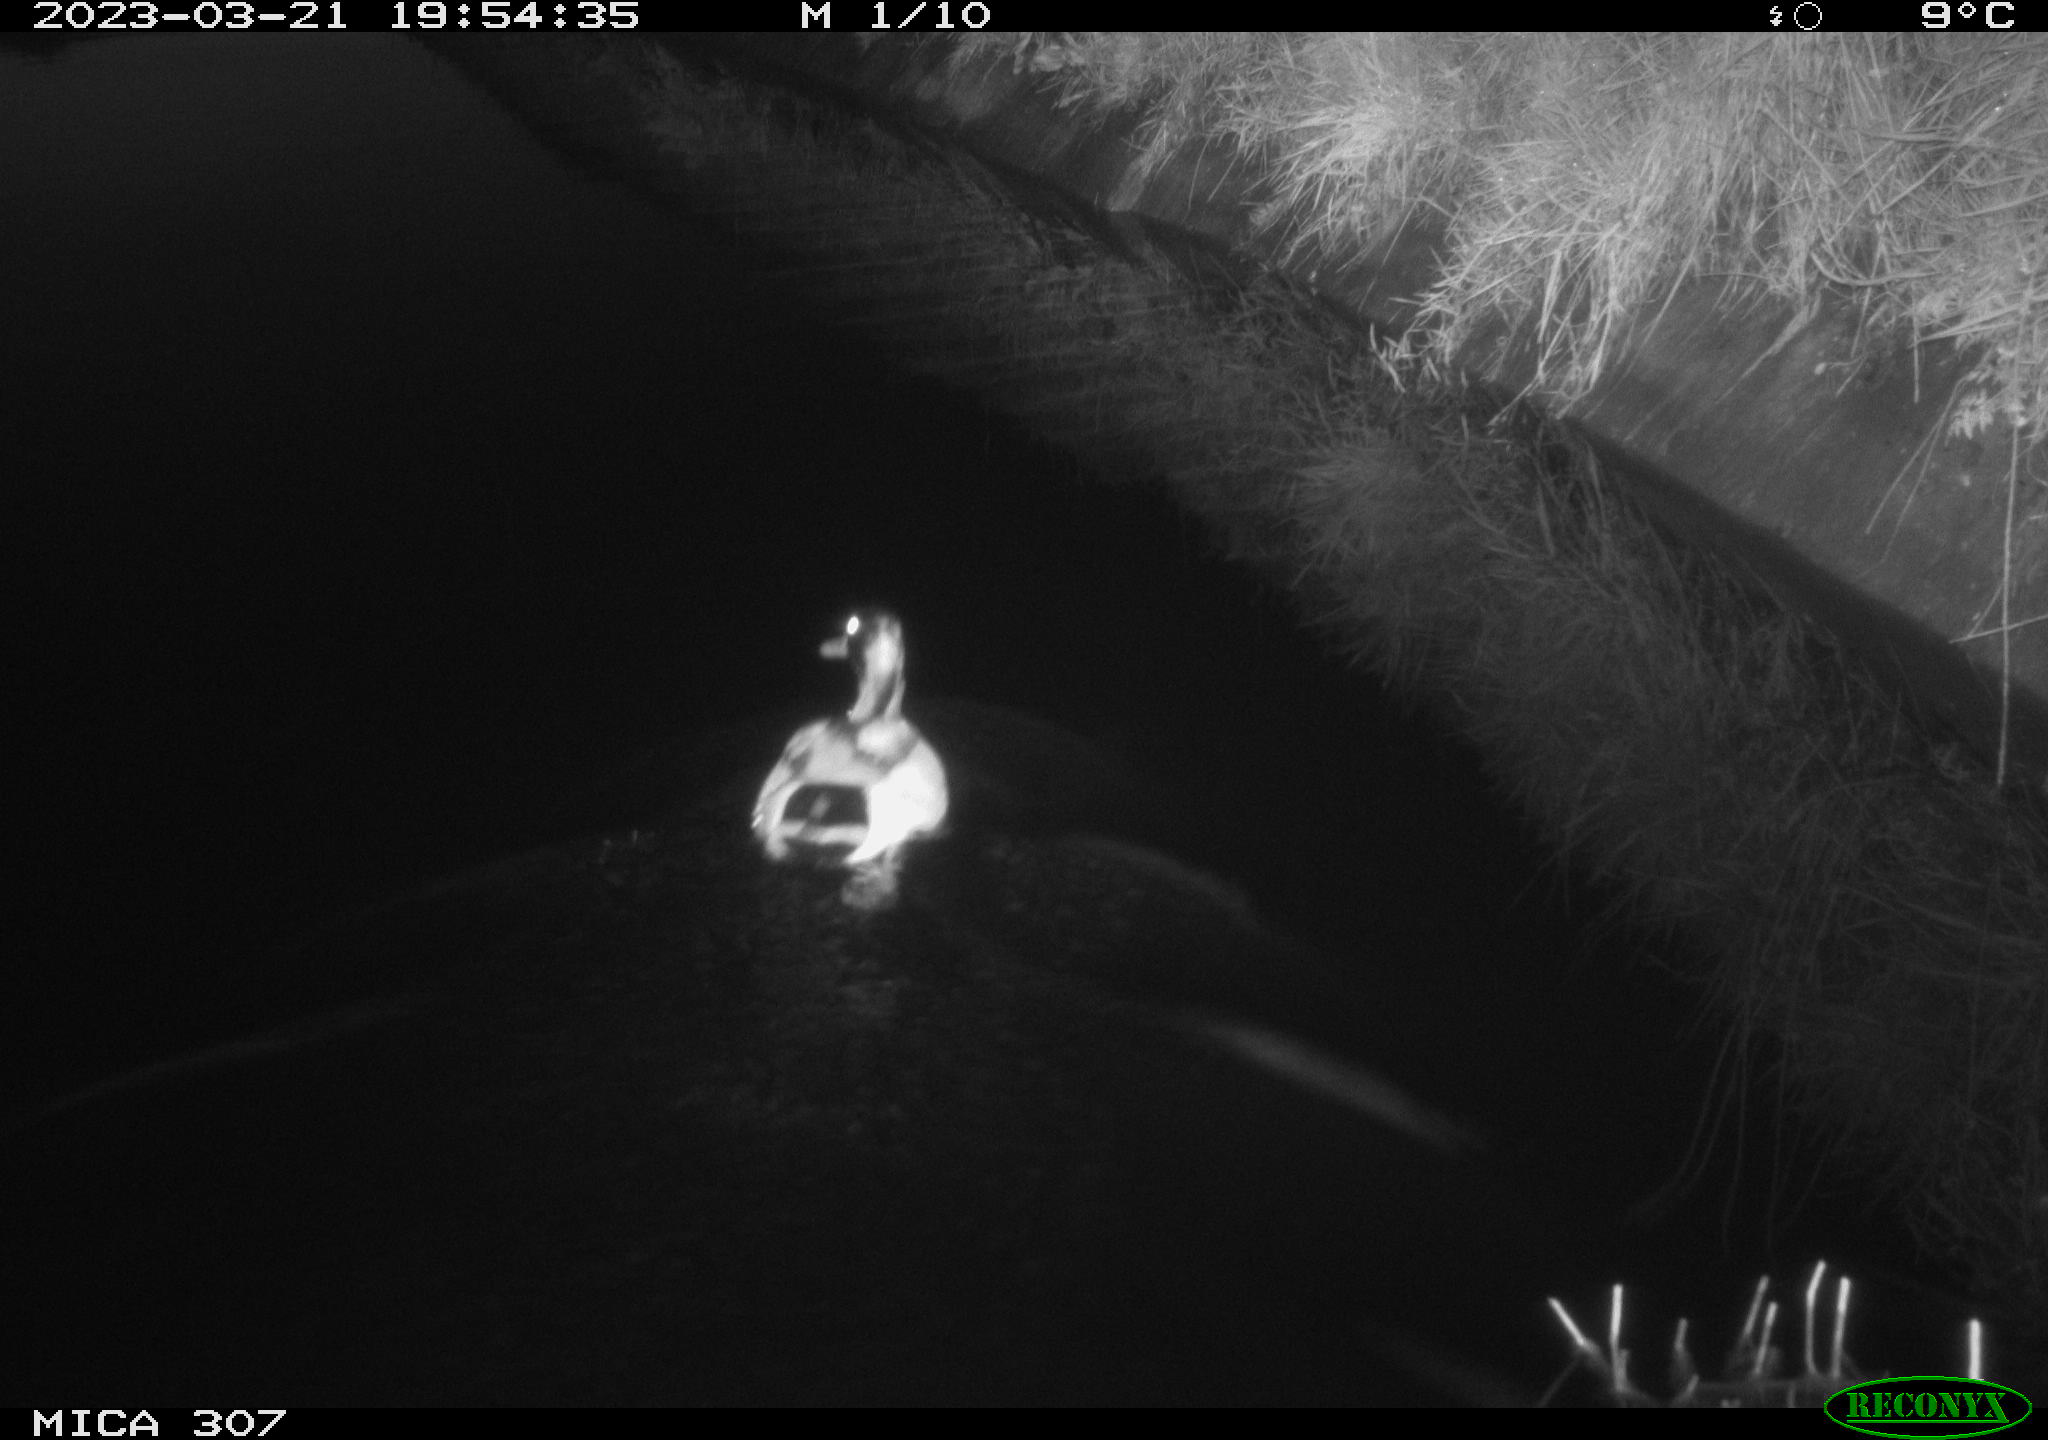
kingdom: Animalia
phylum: Chordata
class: Aves
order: Anseriformes
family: Anatidae
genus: Anas
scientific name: Anas
